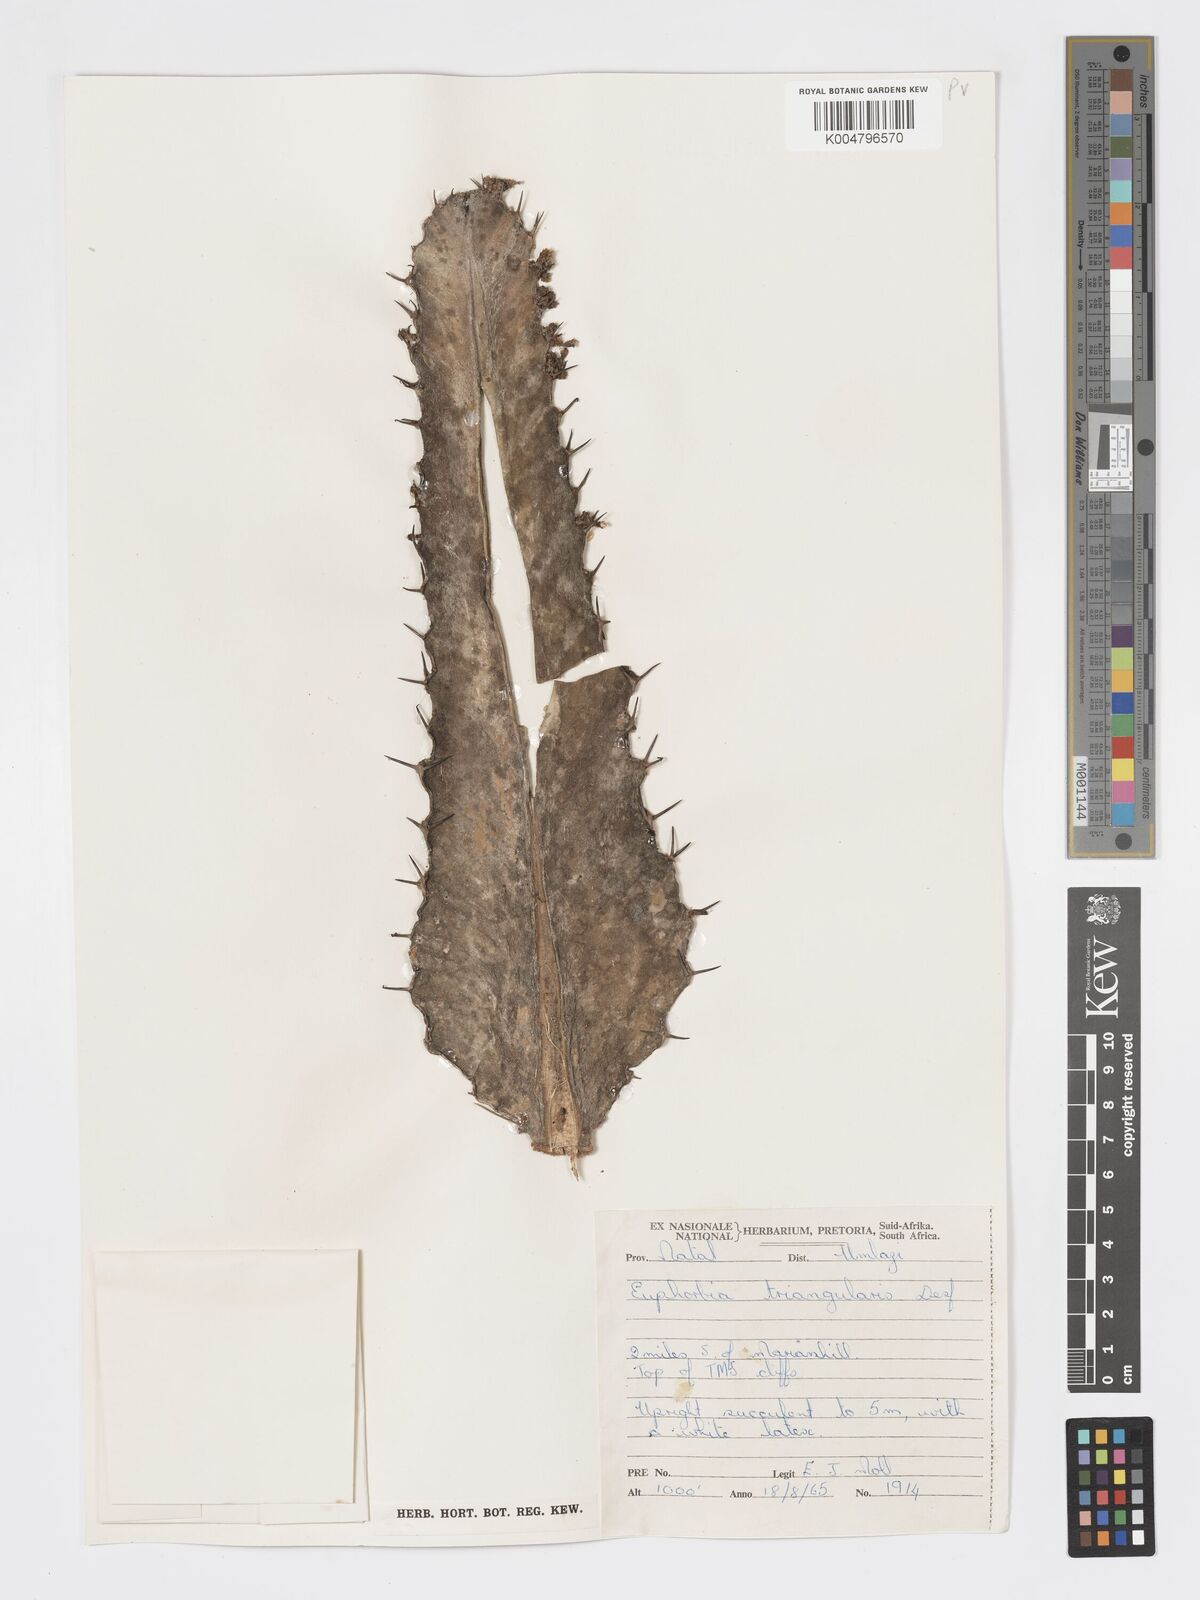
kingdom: Plantae
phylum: Tracheophyta
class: Magnoliopsida
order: Malpighiales
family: Euphorbiaceae
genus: Euphorbia
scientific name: Euphorbia triangularis
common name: Chandelier tree
